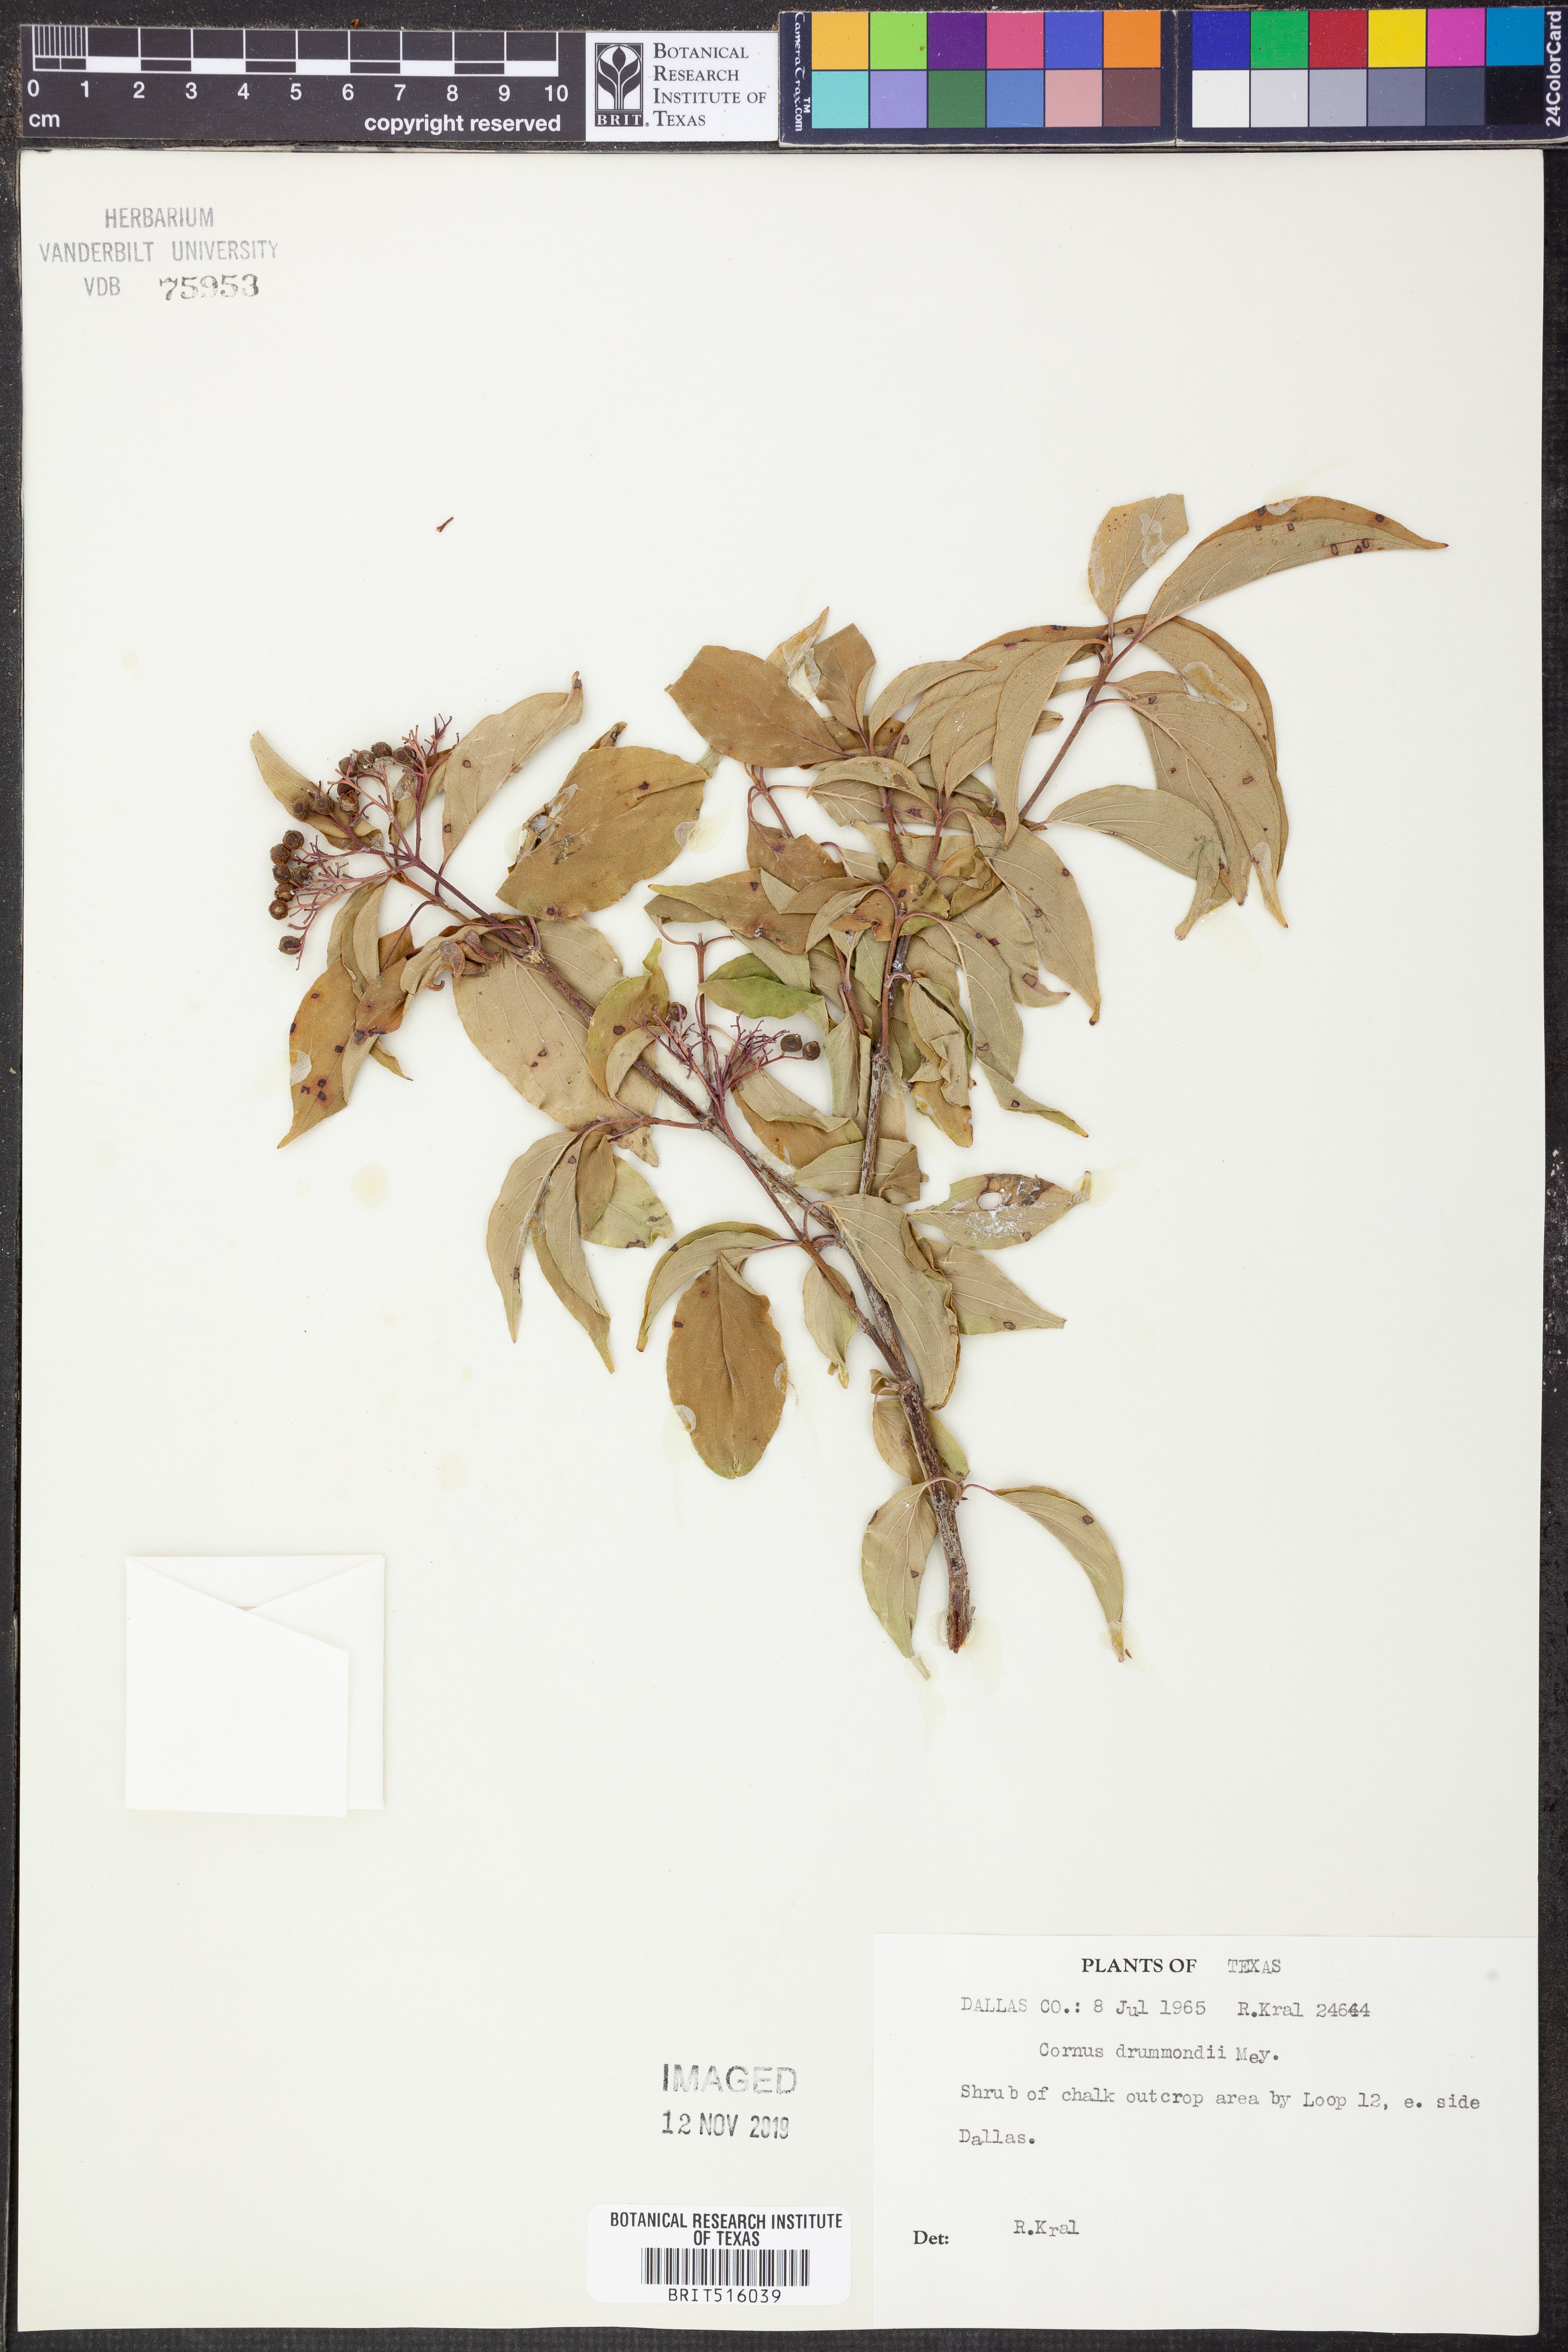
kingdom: Plantae
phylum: Tracheophyta
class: Magnoliopsida
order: Cornales
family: Cornaceae
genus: Cornus
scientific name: Cornus drummondii
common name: Rough-leaf dogwood
